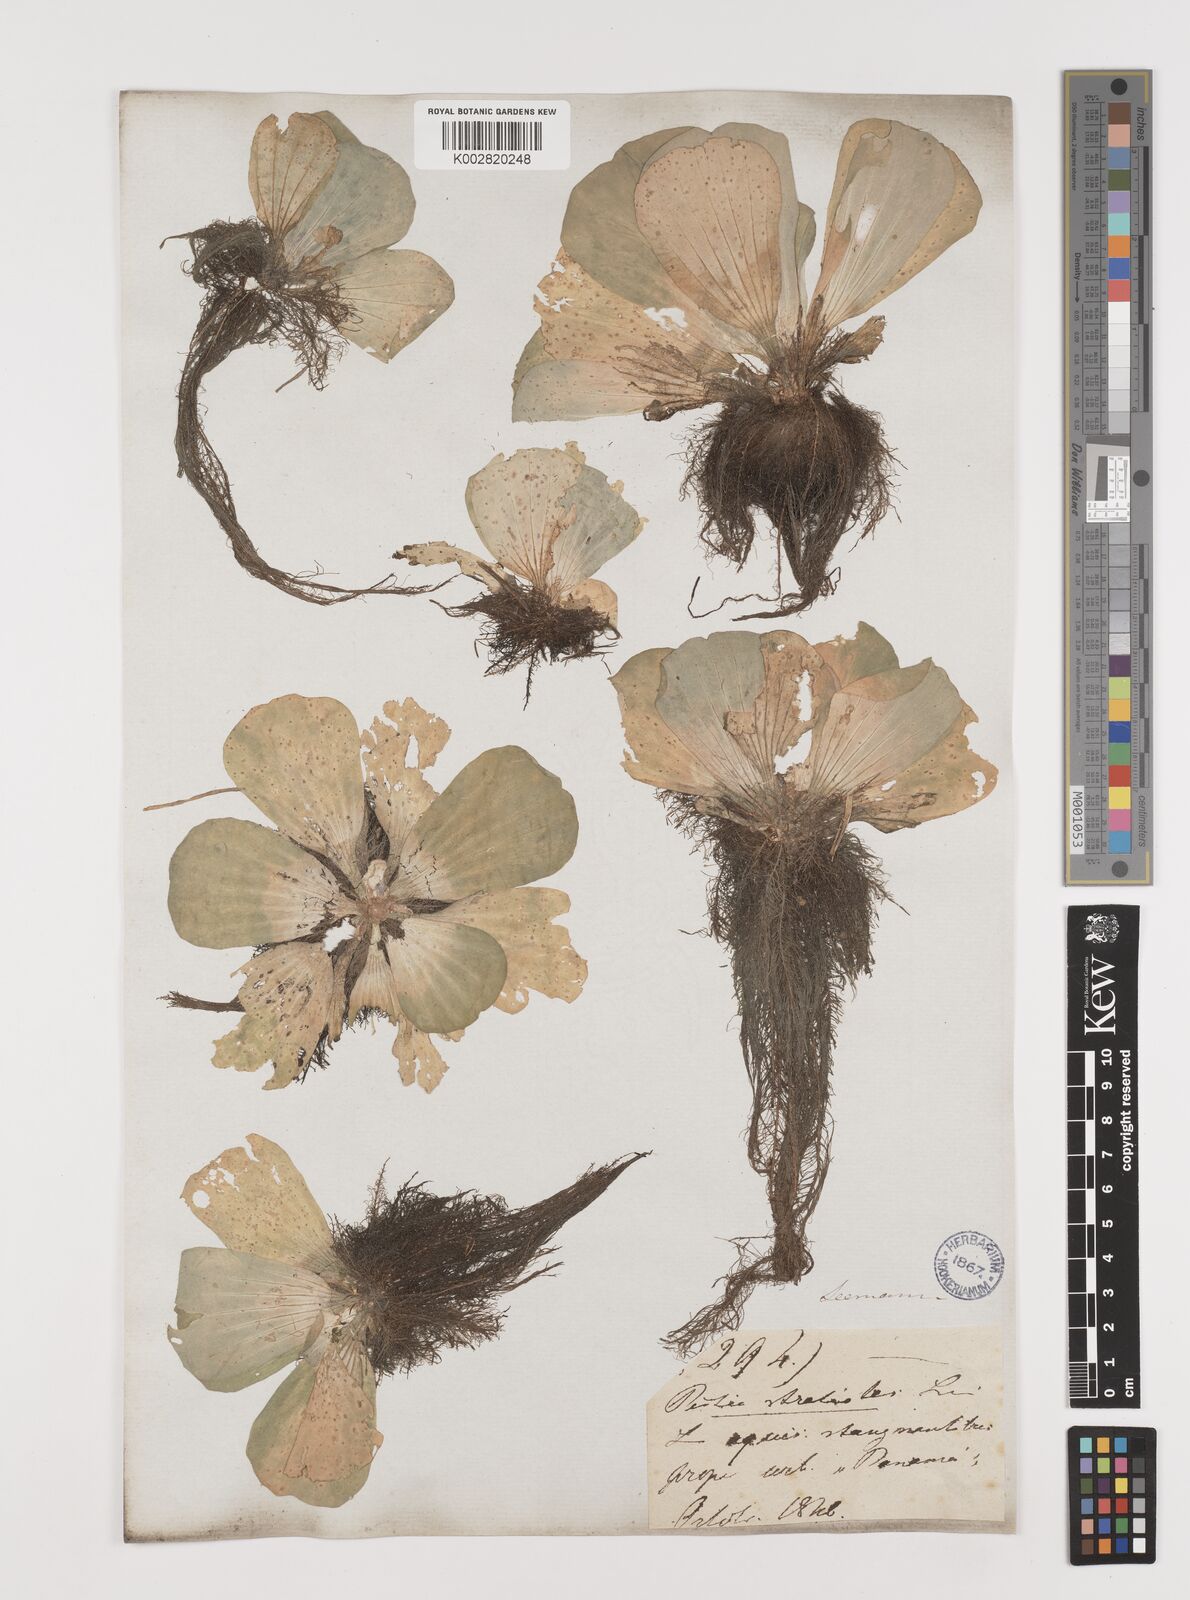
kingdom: Plantae
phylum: Tracheophyta
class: Liliopsida
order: Alismatales
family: Araceae
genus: Pistia
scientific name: Pistia stratiotes
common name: Water lettuce
